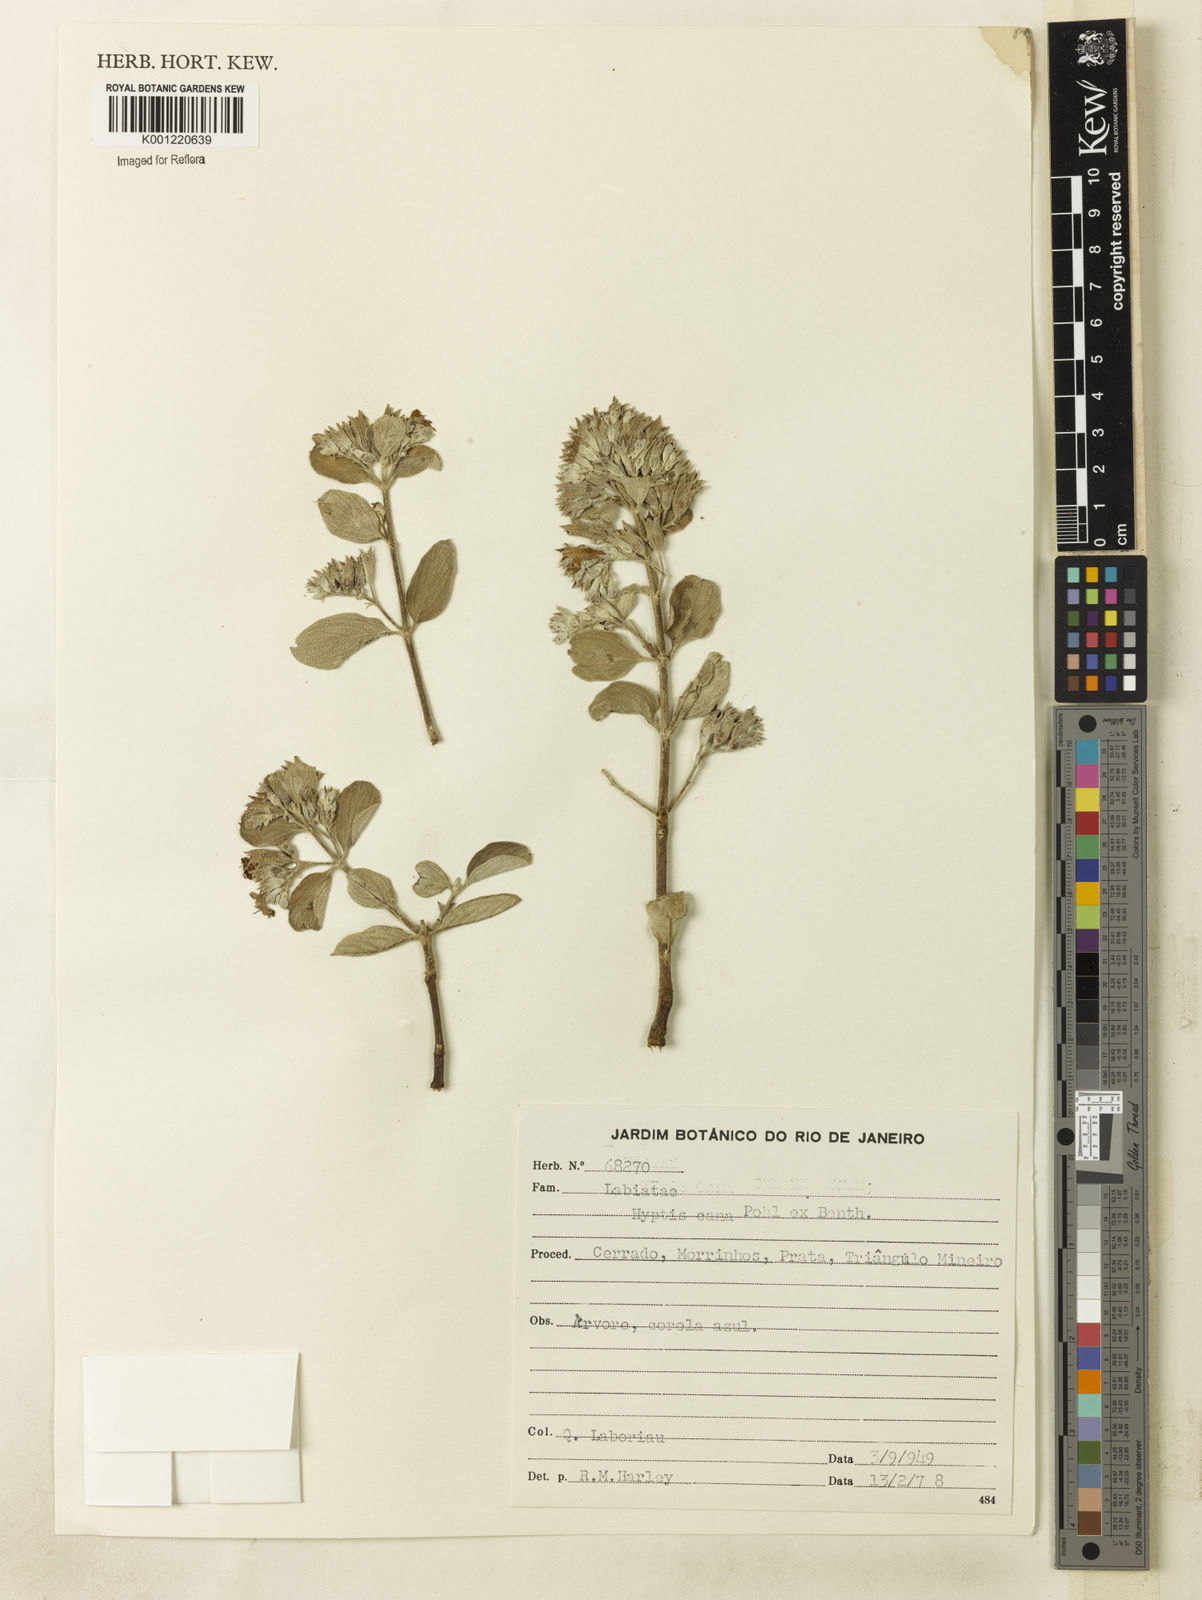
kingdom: Plantae
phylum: Tracheophyta
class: Magnoliopsida
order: Lamiales
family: Lamiaceae
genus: Hyptidendron
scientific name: Hyptidendron canum
